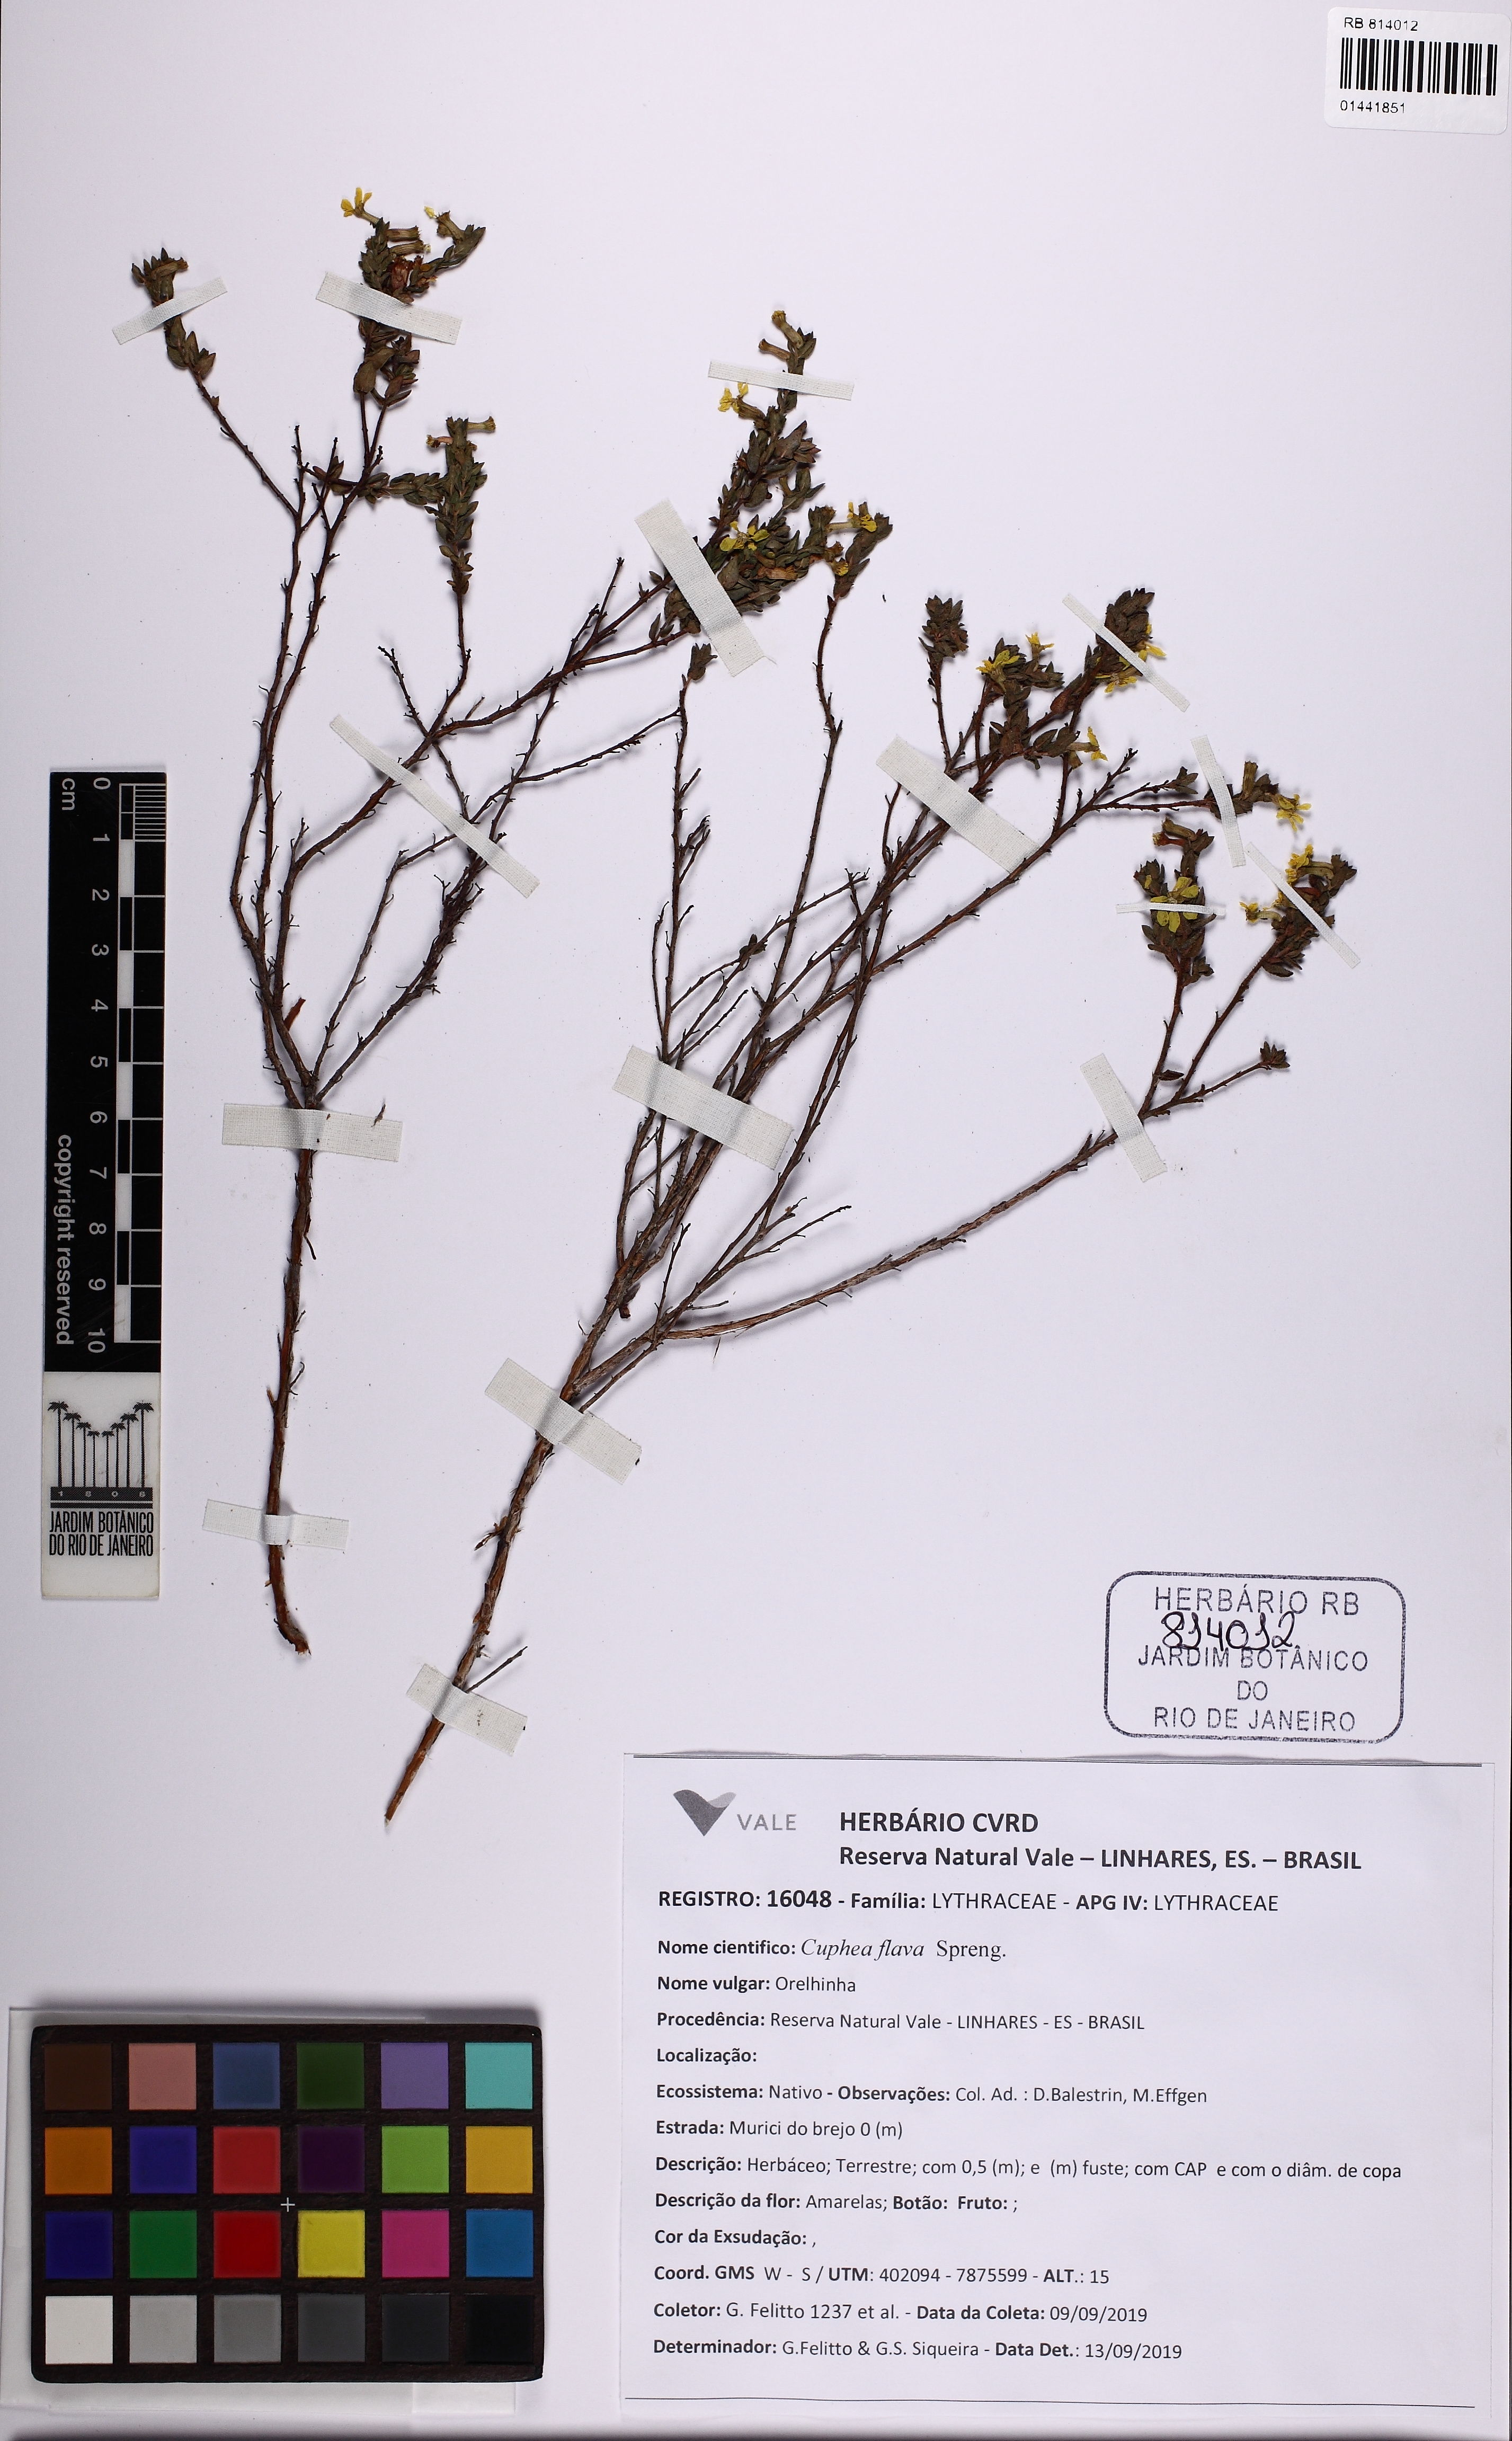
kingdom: Plantae
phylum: Tracheophyta
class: Magnoliopsida
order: Myrtales
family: Lythraceae
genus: Cuphea
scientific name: Cuphea flava
